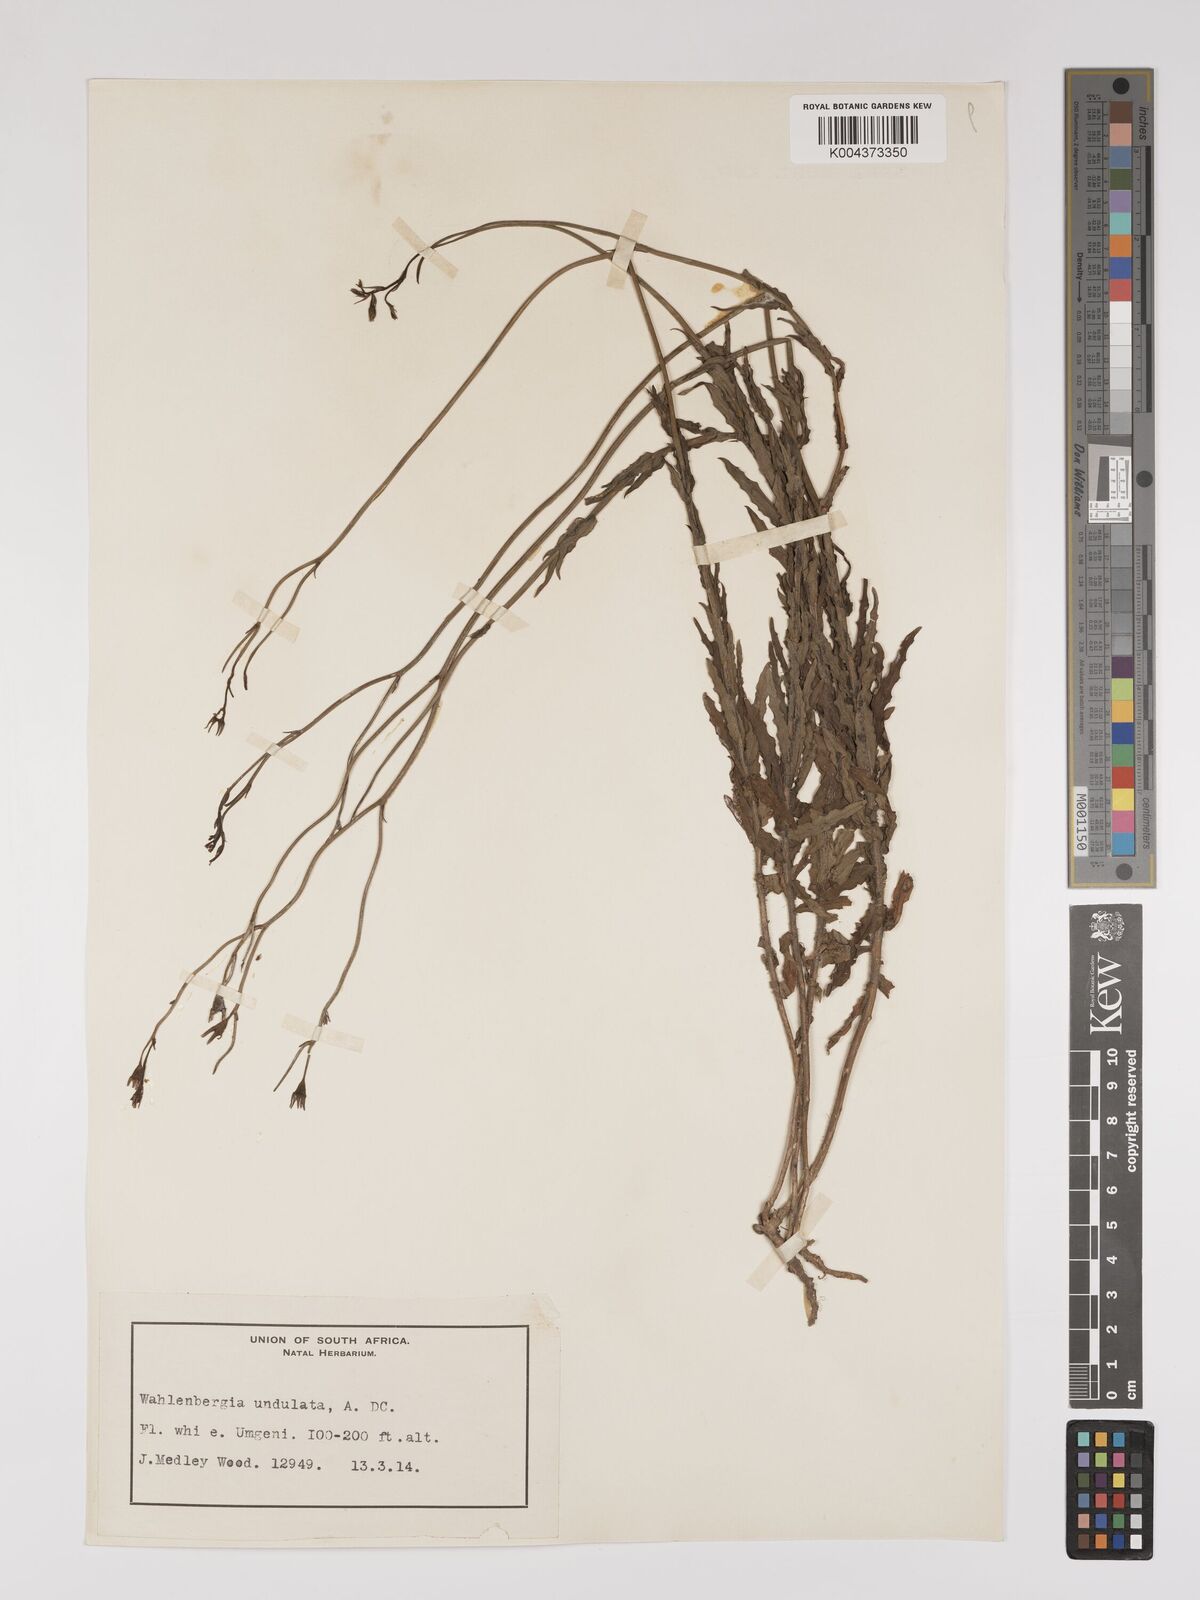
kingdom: Plantae
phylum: Tracheophyta
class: Magnoliopsida
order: Asterales
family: Campanulaceae
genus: Wahlenbergia
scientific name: Wahlenbergia undulata
